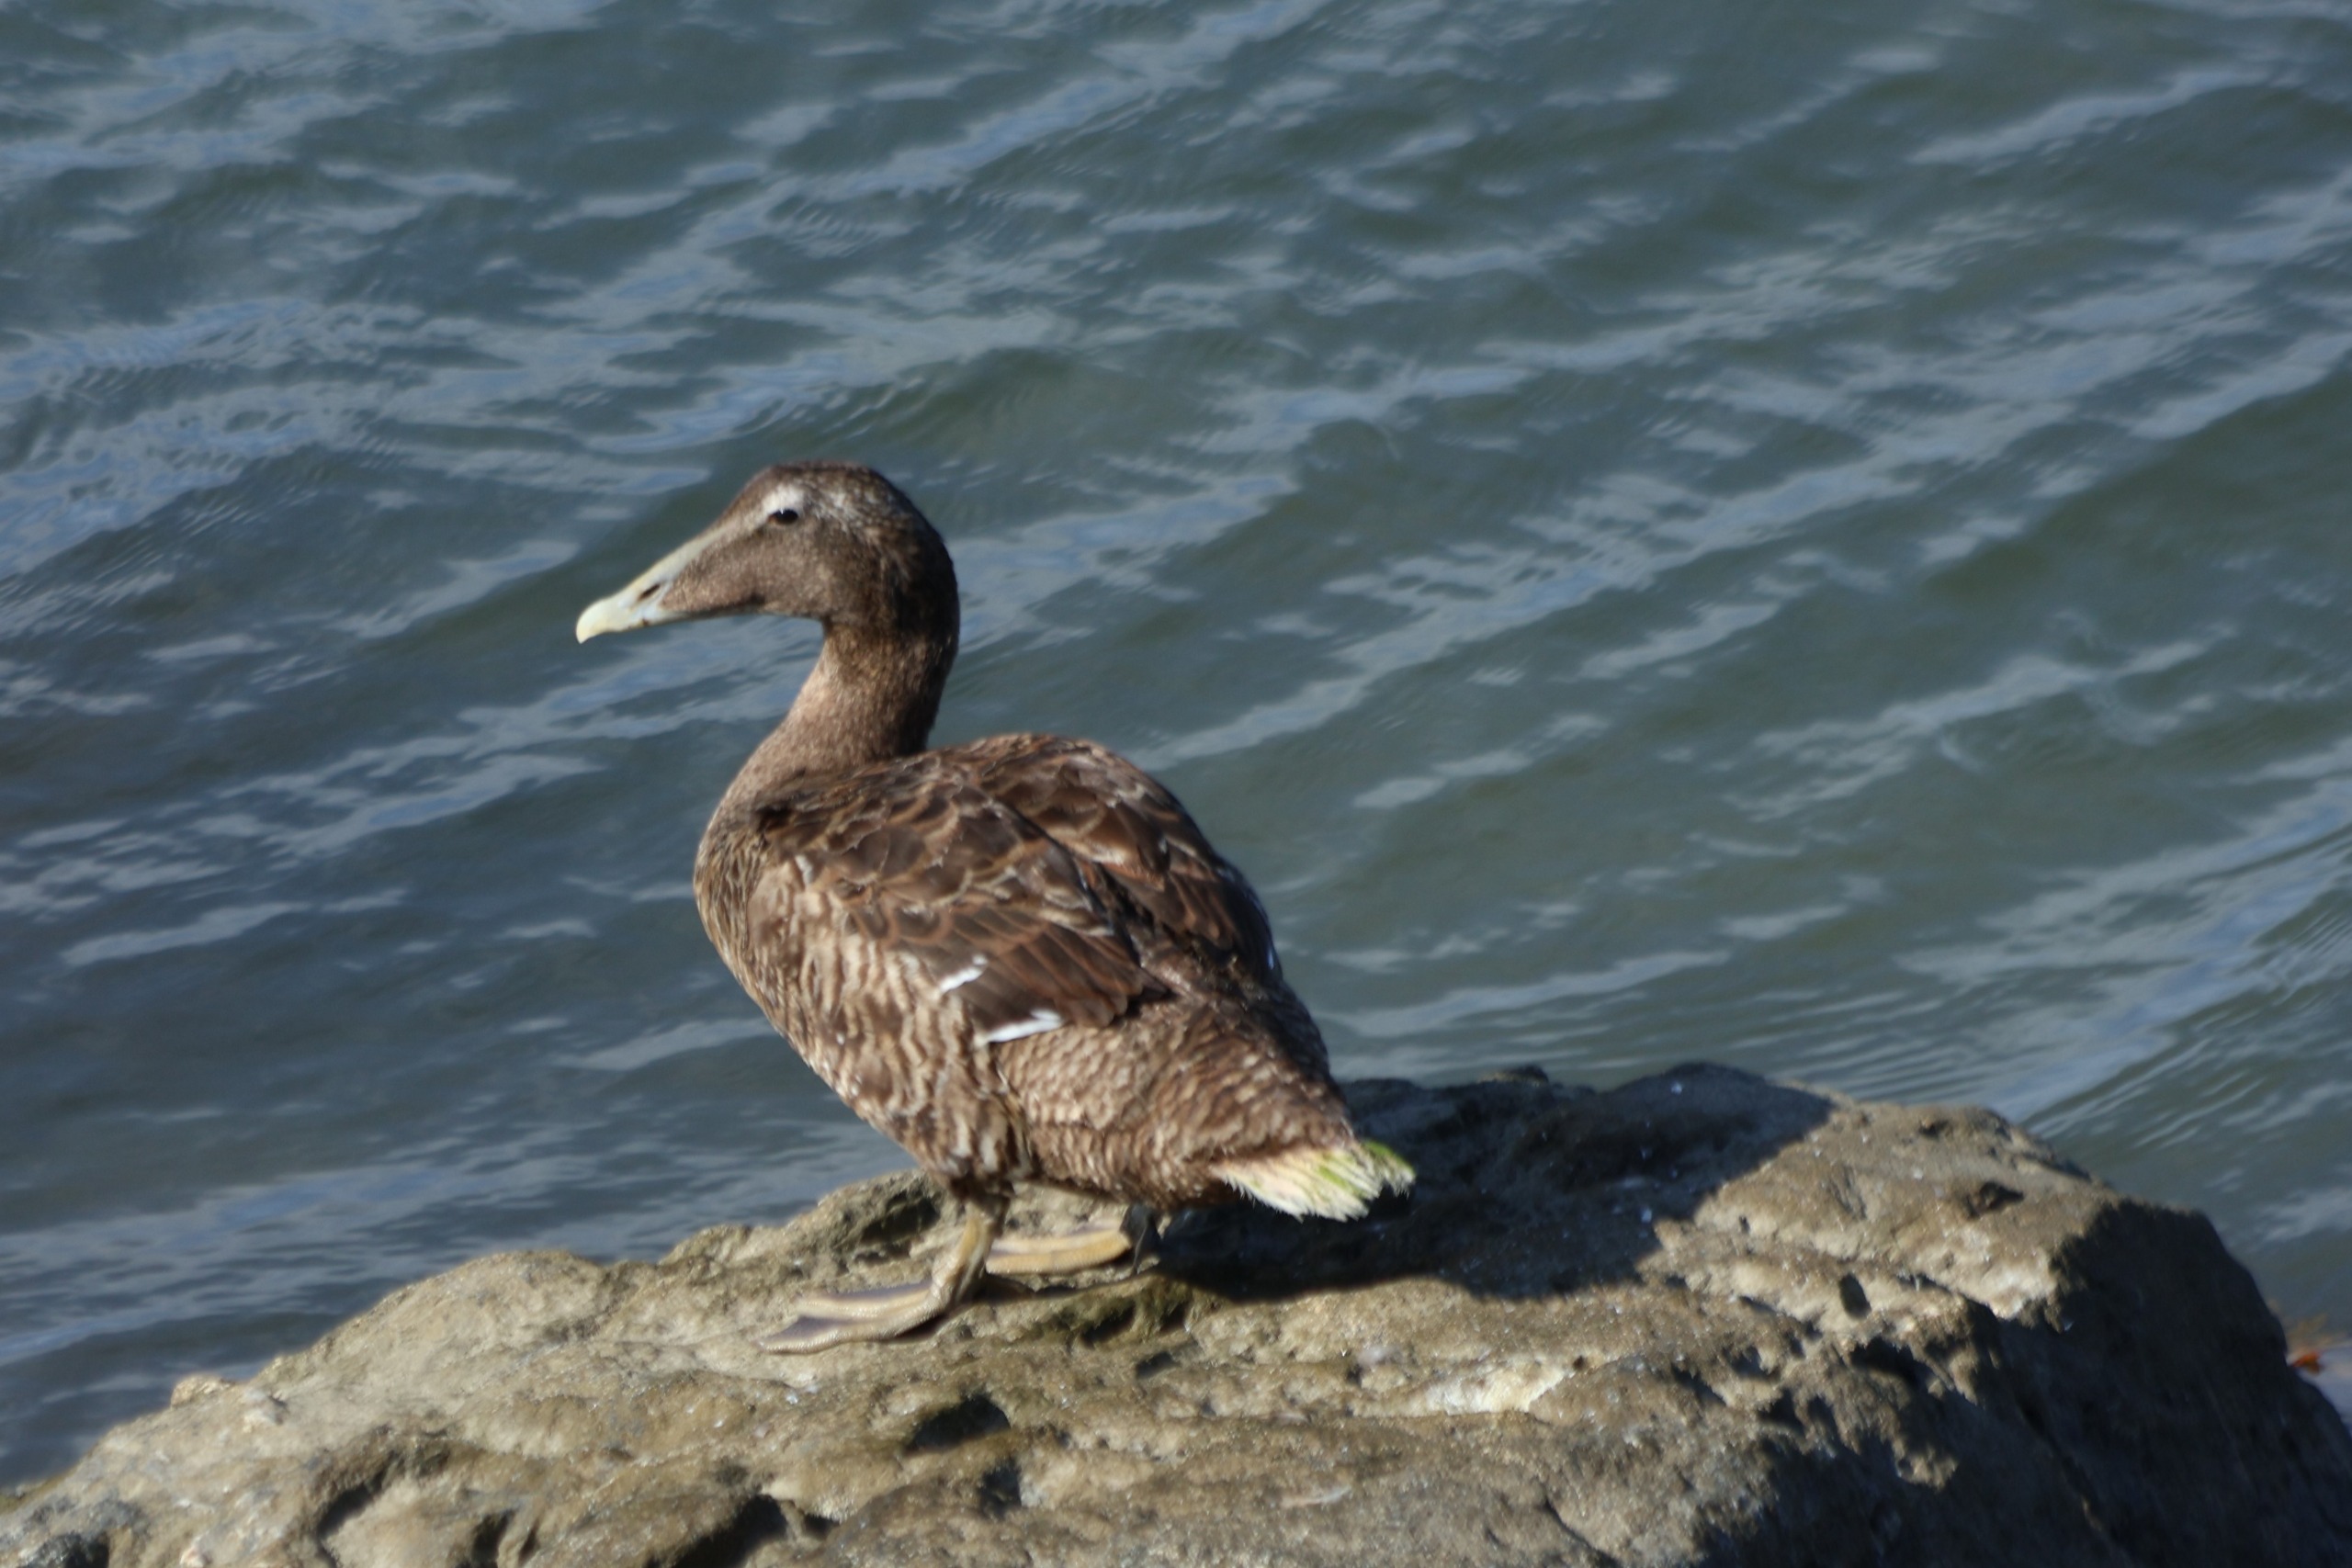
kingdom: Animalia
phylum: Chordata
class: Aves
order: Anseriformes
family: Anatidae
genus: Somateria
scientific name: Somateria mollissima
